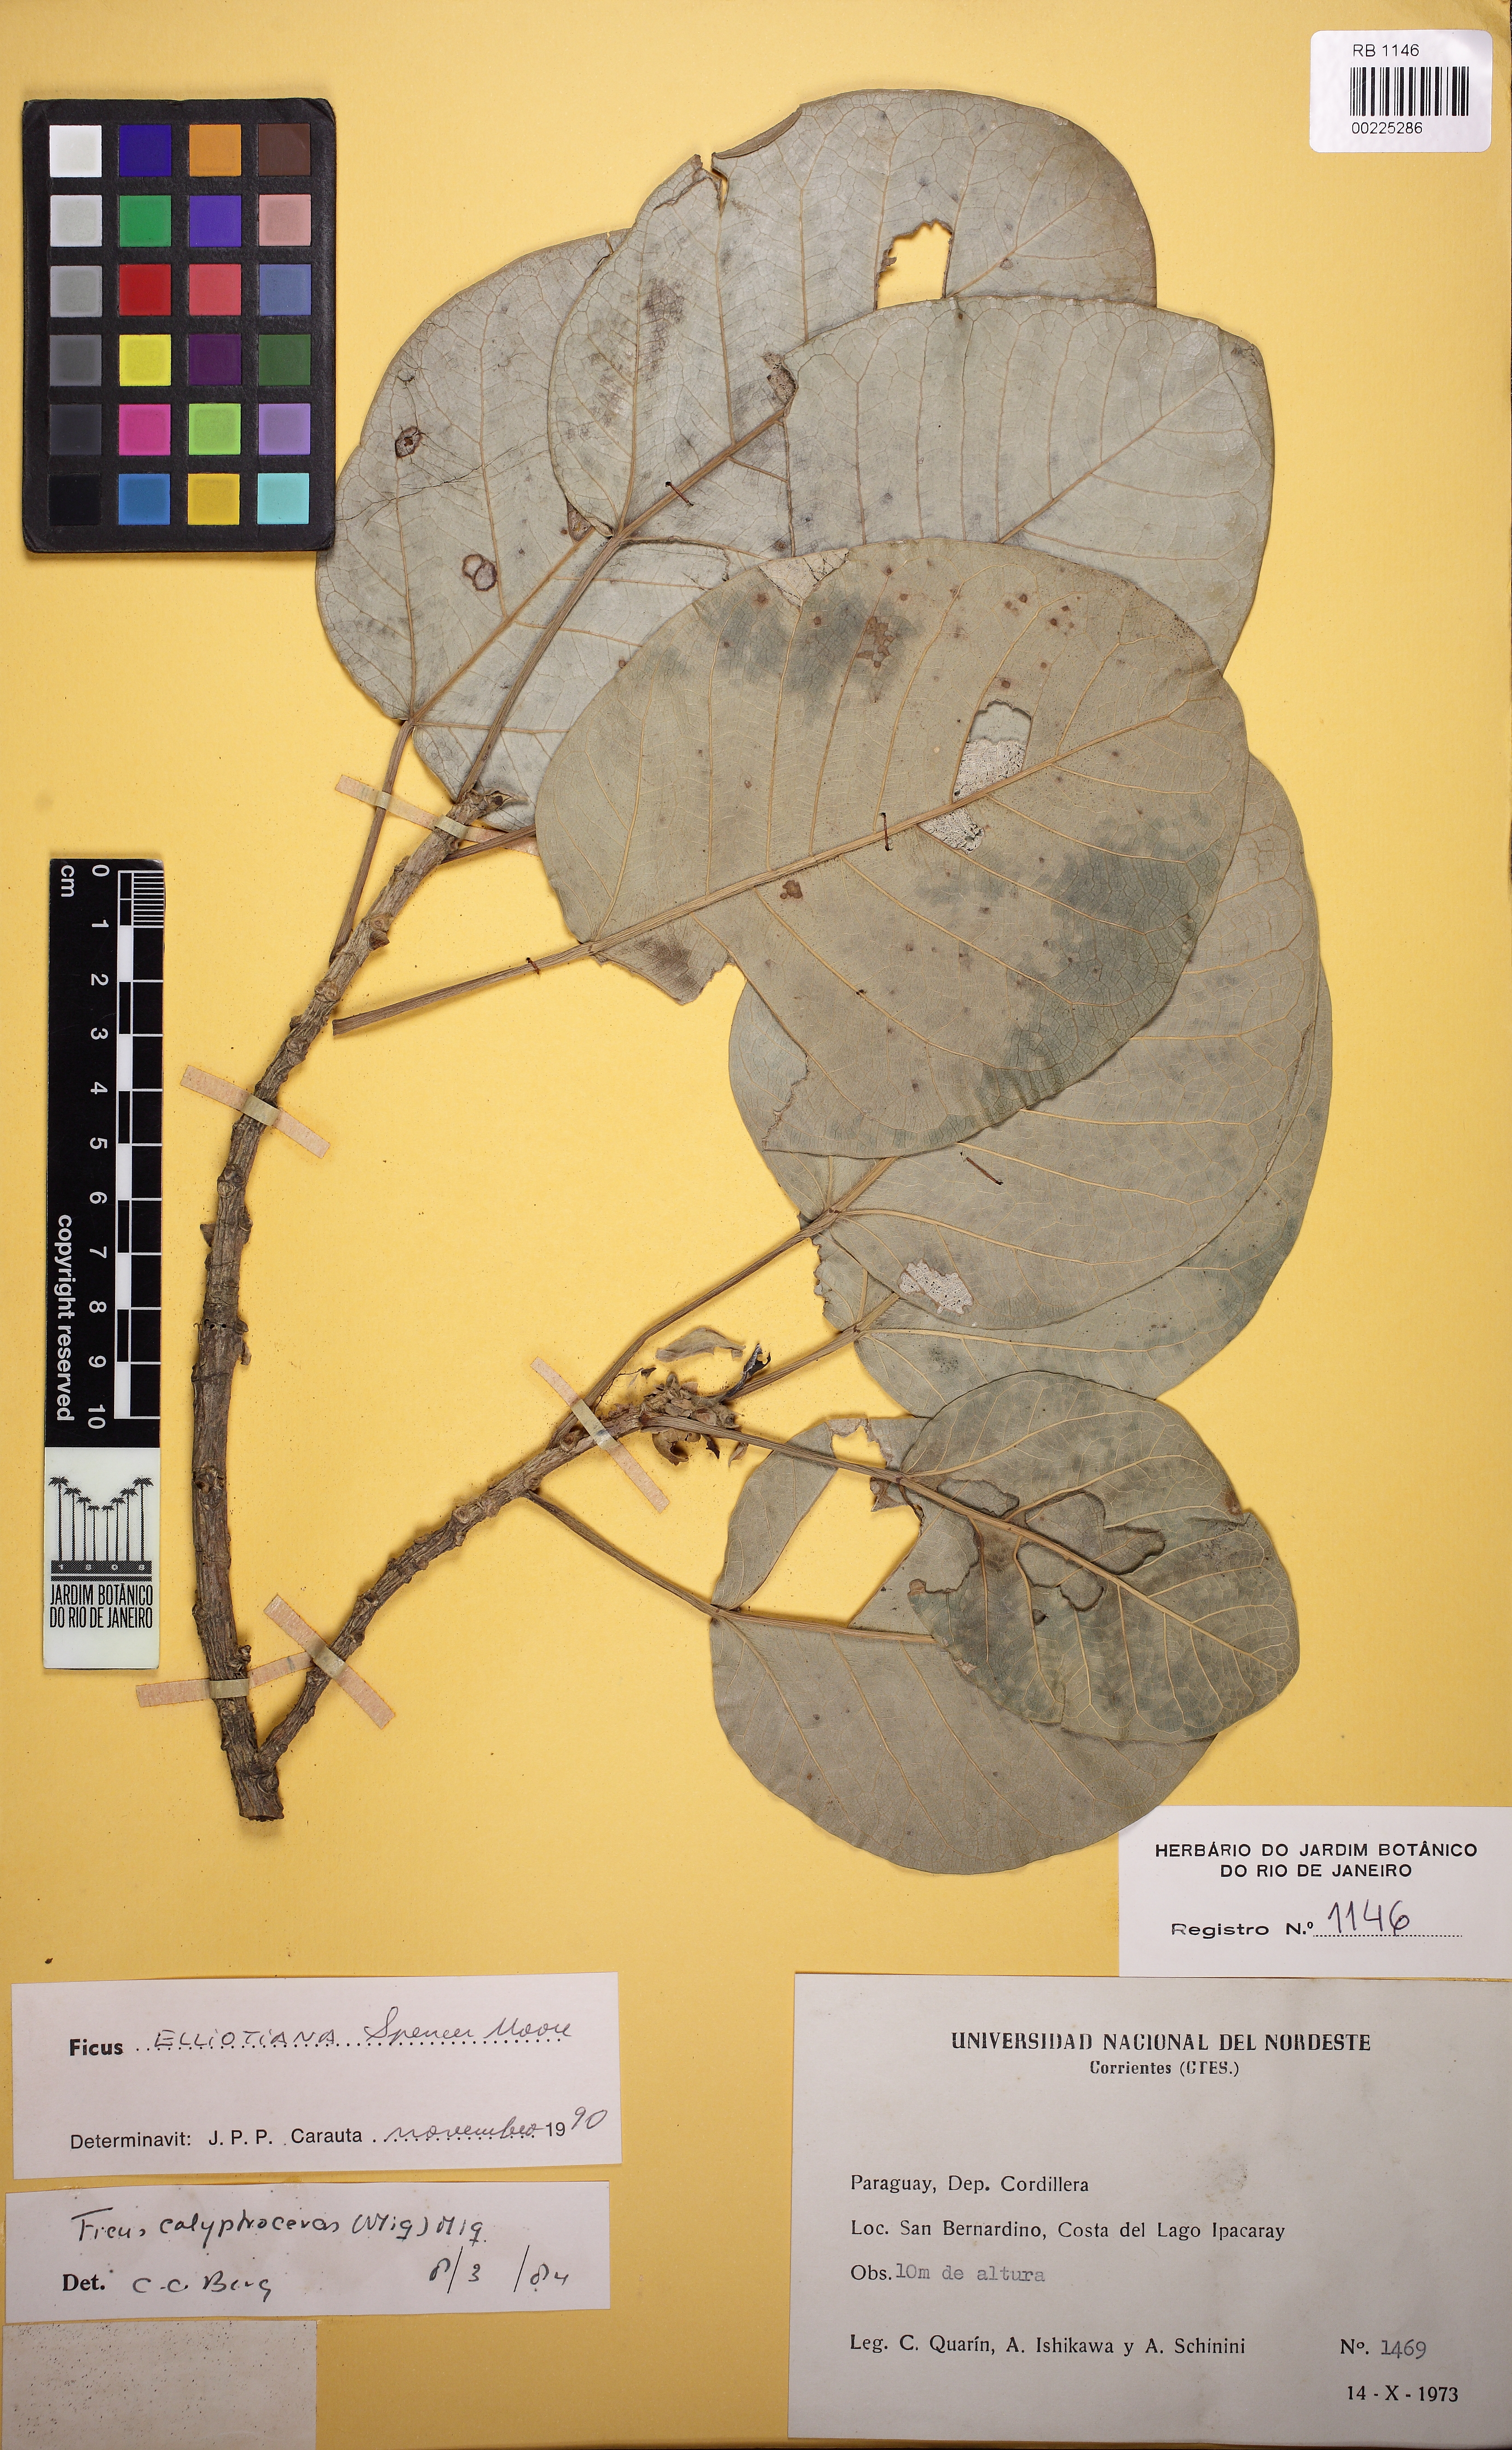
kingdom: Plantae
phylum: Tracheophyta
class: Magnoliopsida
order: Rosales
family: Moraceae
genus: Ficus
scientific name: Ficus elliotiana
